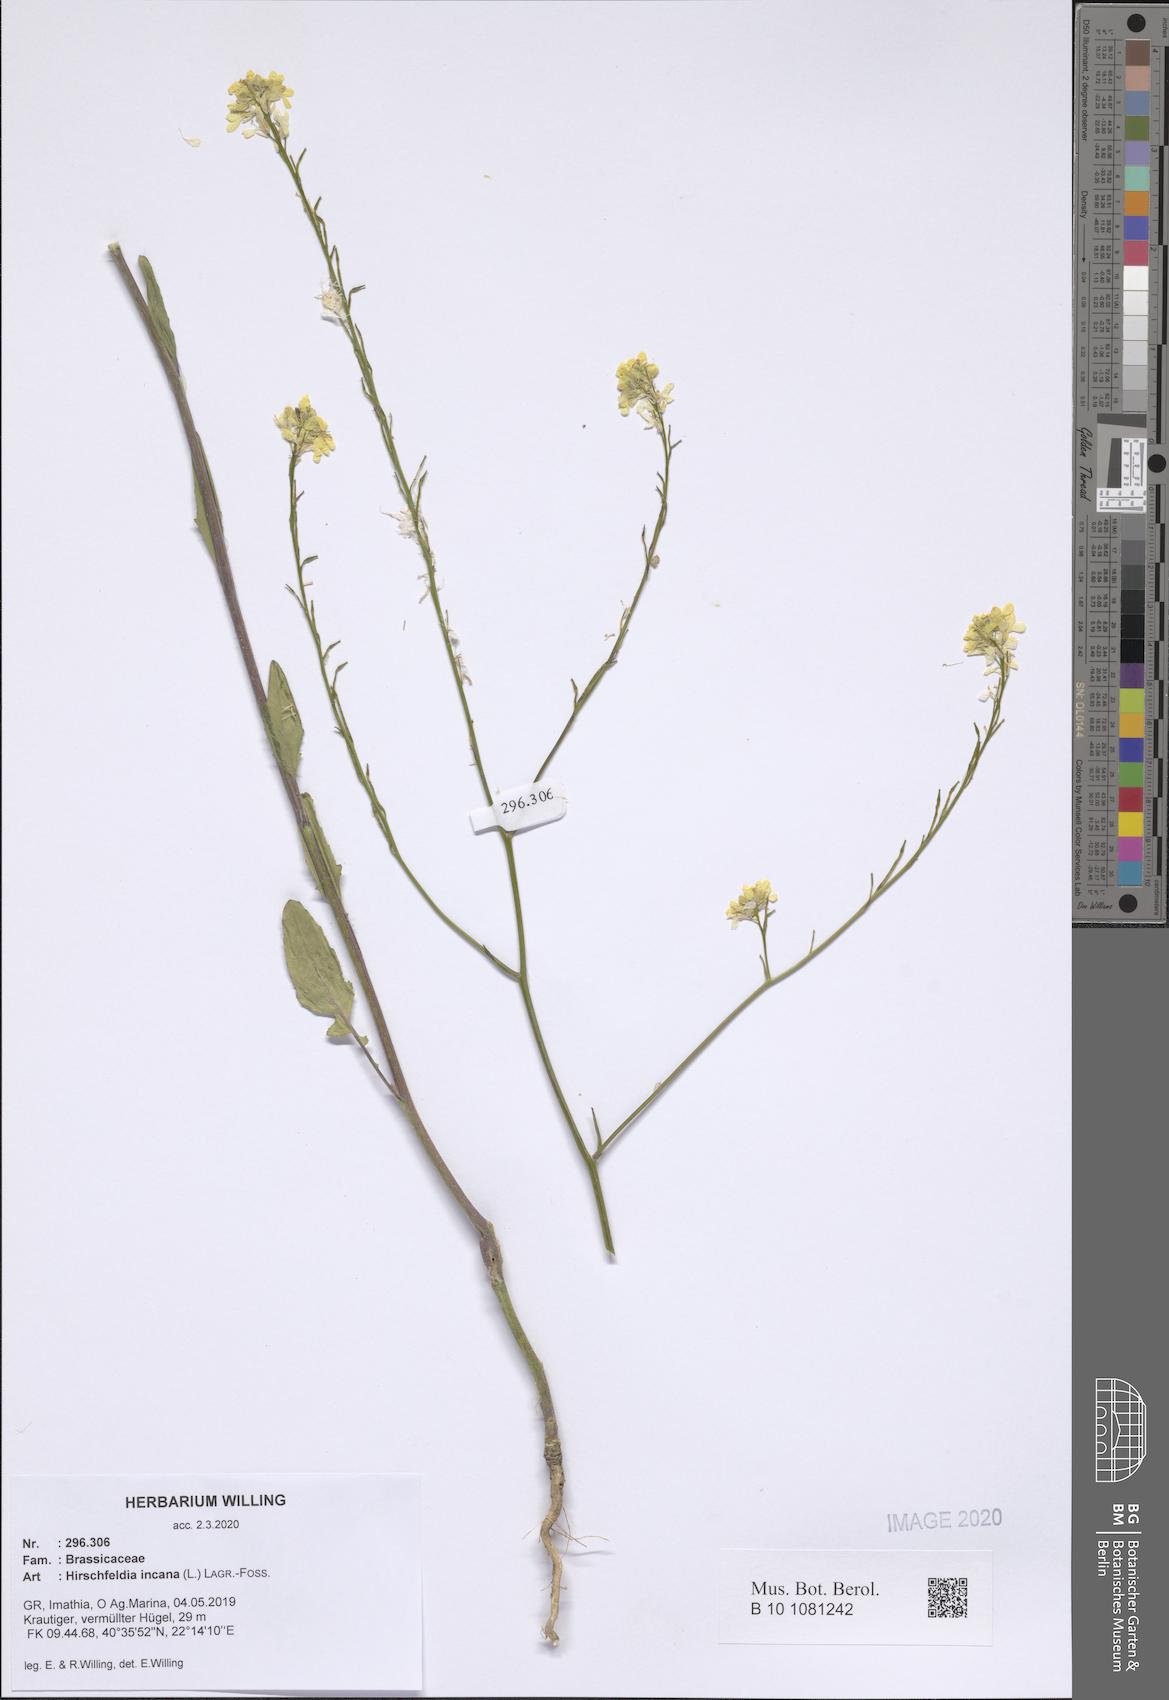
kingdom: Plantae
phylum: Tracheophyta
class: Magnoliopsida
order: Brassicales
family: Brassicaceae
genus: Hirschfeldia
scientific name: Hirschfeldia incana
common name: Hoary mustard
